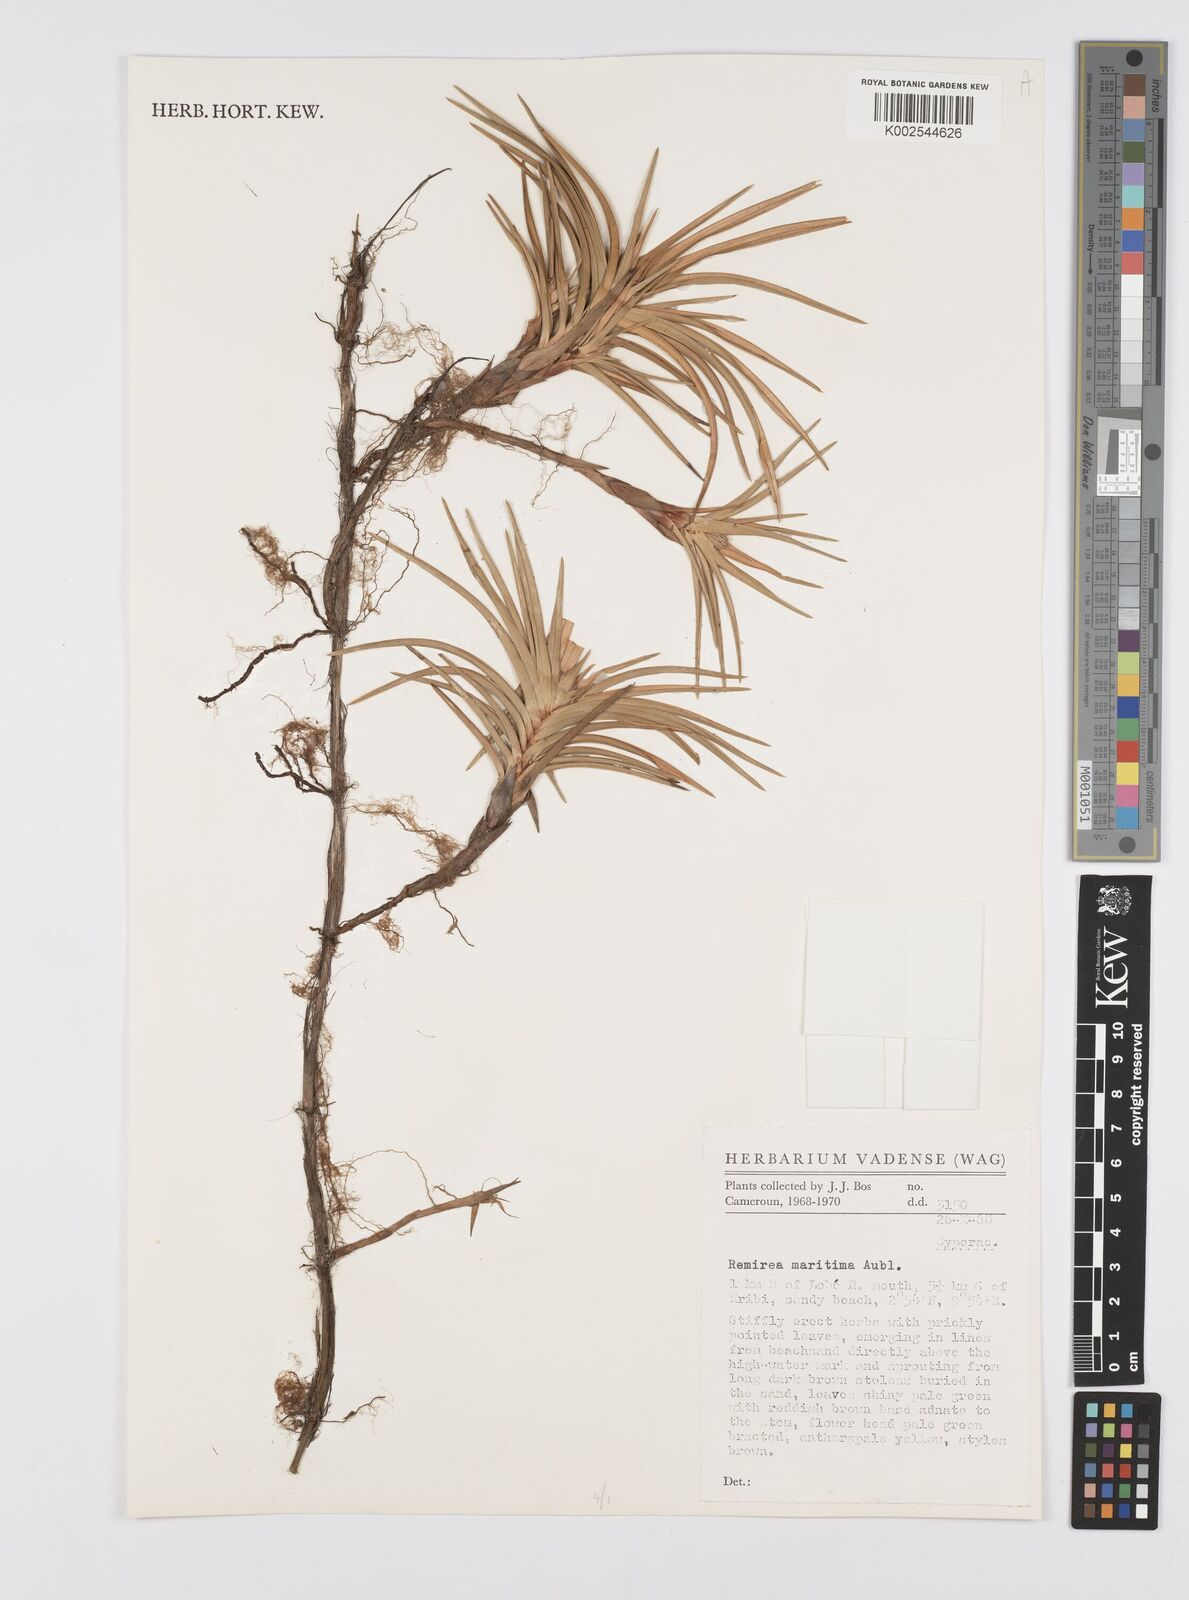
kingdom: Plantae
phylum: Tracheophyta
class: Liliopsida
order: Poales
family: Cyperaceae
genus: Cyperus
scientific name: Cyperus
